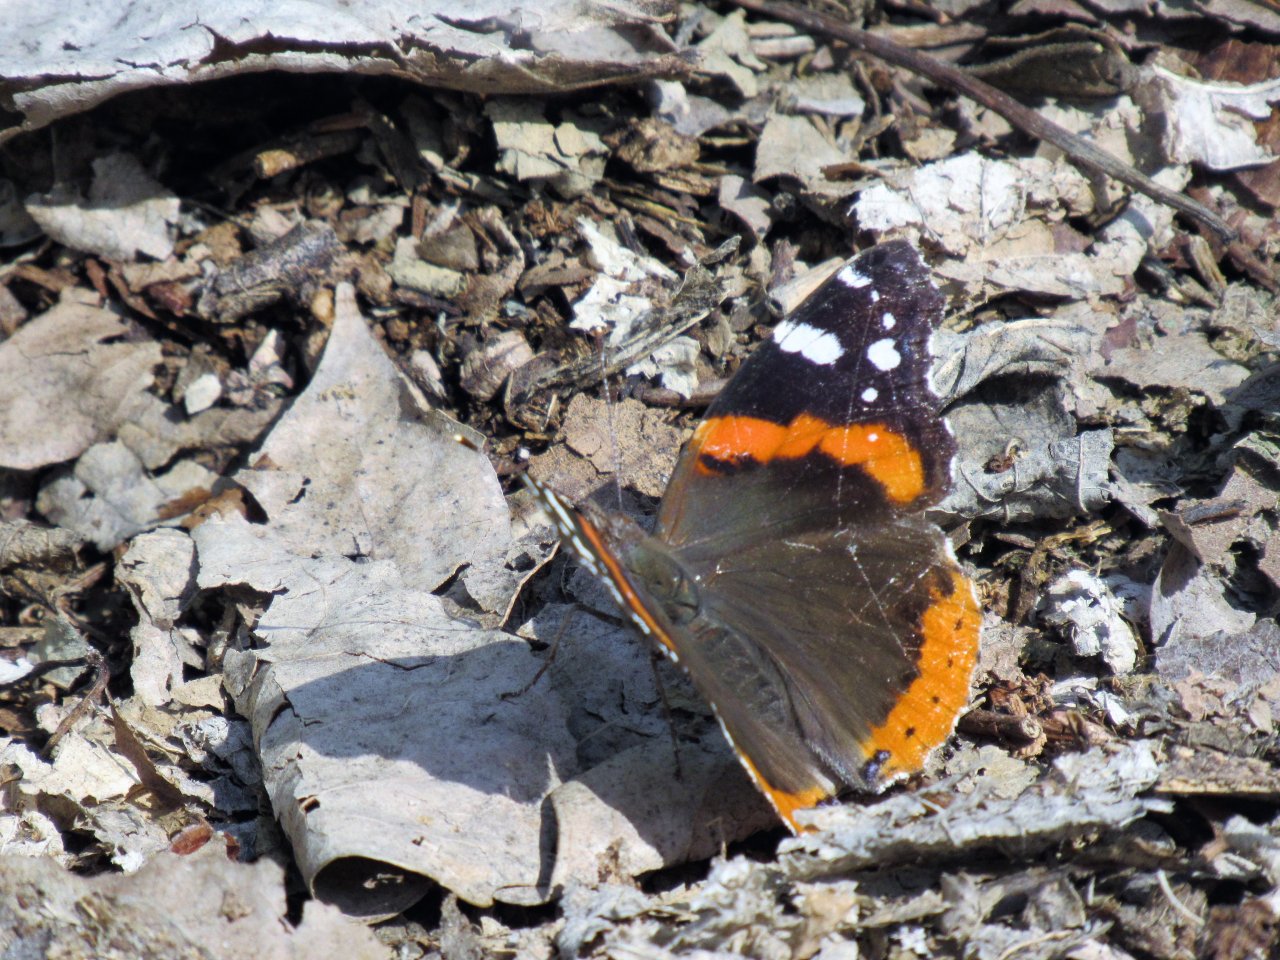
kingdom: Animalia
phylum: Arthropoda
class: Insecta
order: Lepidoptera
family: Nymphalidae
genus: Vanessa
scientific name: Vanessa atalanta
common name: Red Admiral
